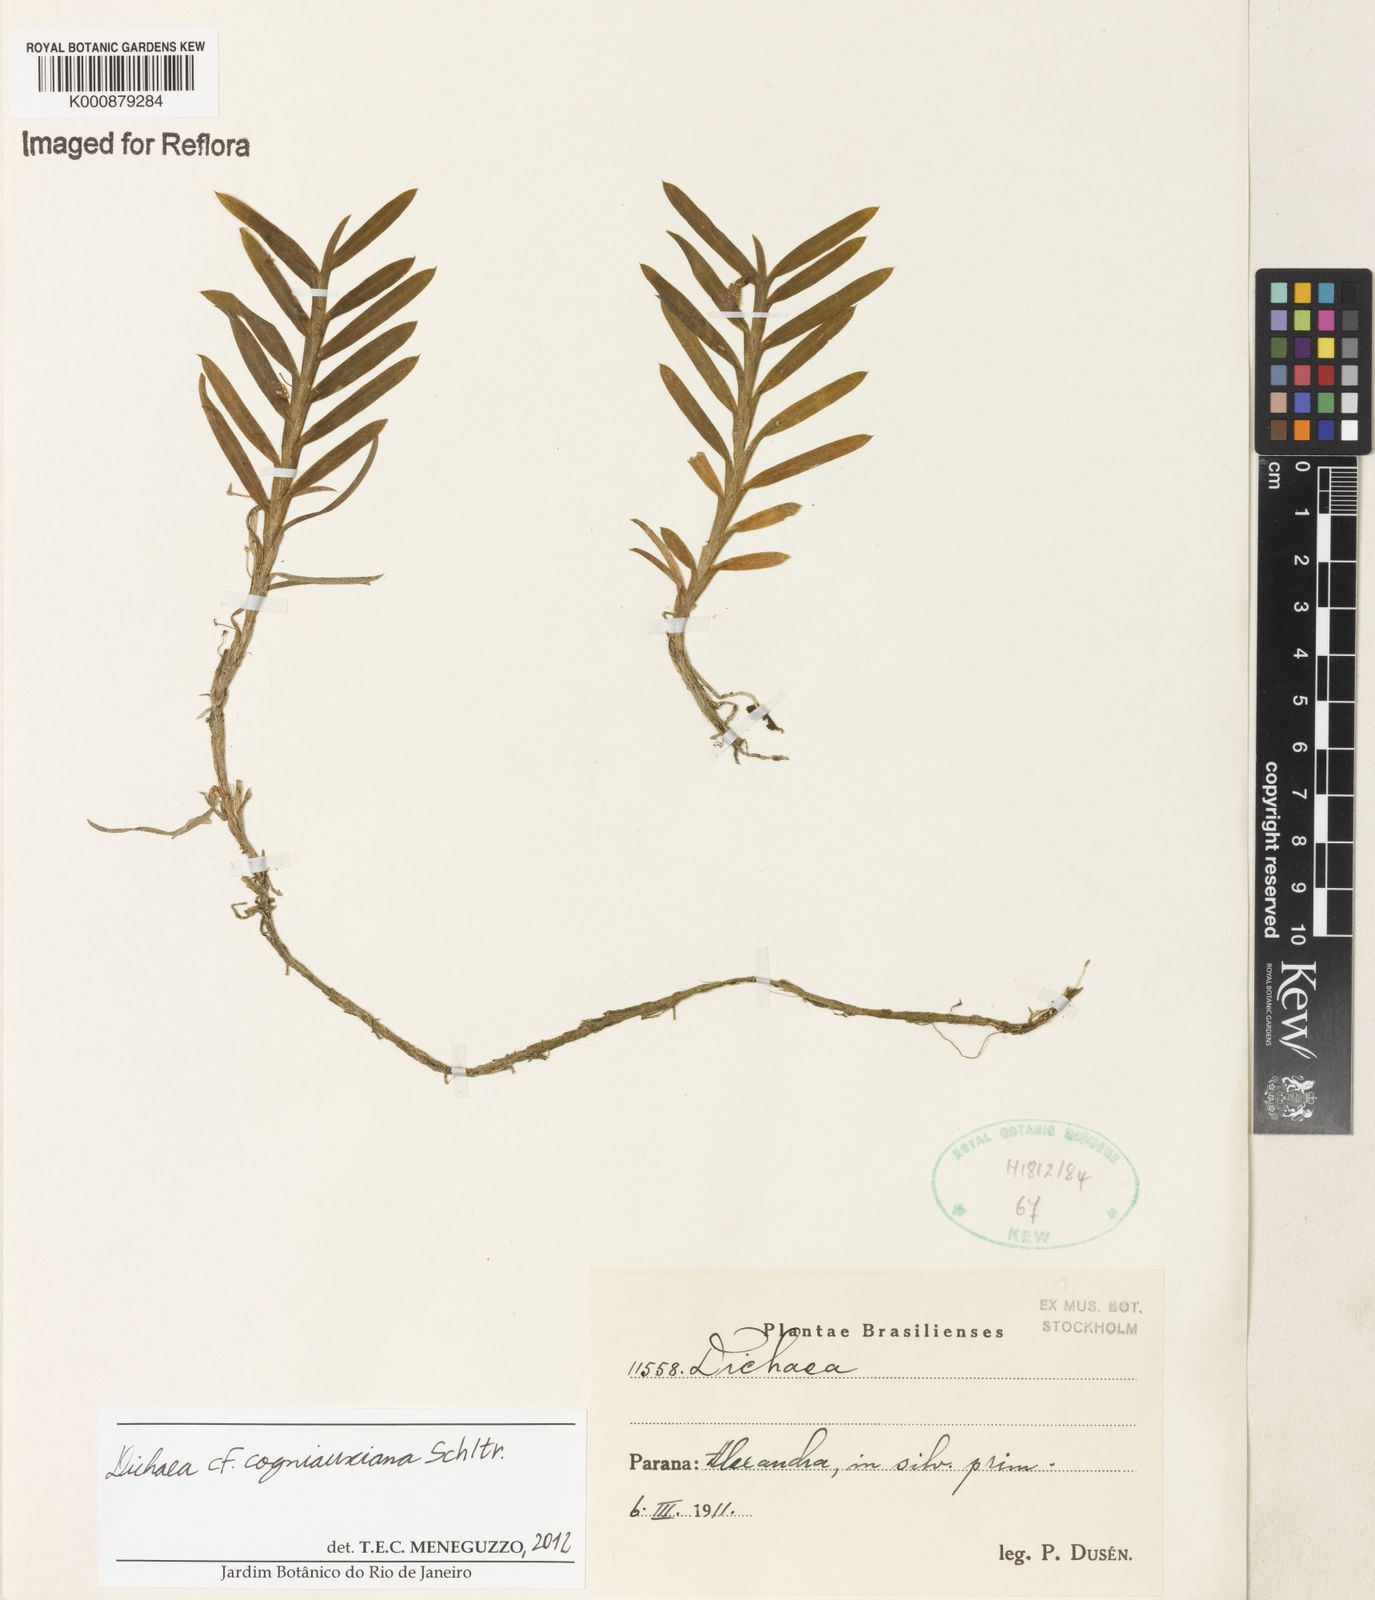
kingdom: Plantae
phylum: Tracheophyta
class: Liliopsida
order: Asparagales
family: Orchidaceae
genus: Dichaea
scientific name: Dichaea cogniauxiana
